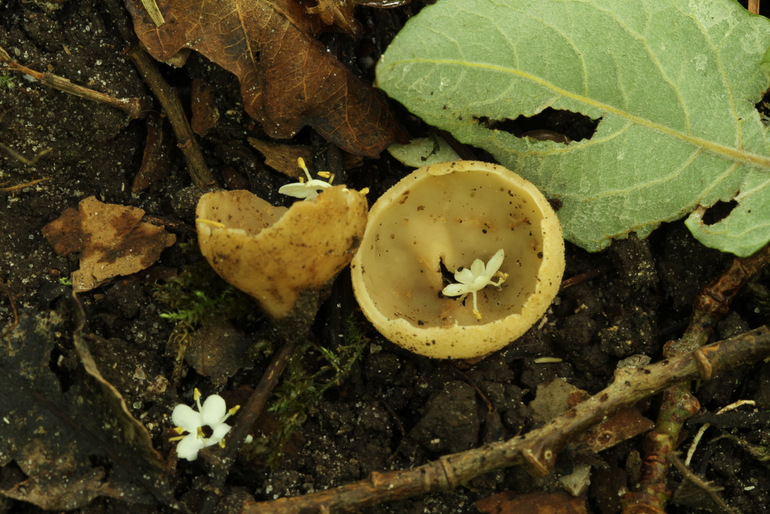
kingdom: Fungi
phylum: Ascomycota
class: Pezizomycetes
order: Pezizales
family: Pyronemataceae
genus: Tarzetta
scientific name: Tarzetta cupularis
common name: gulbrun pokalbæger
